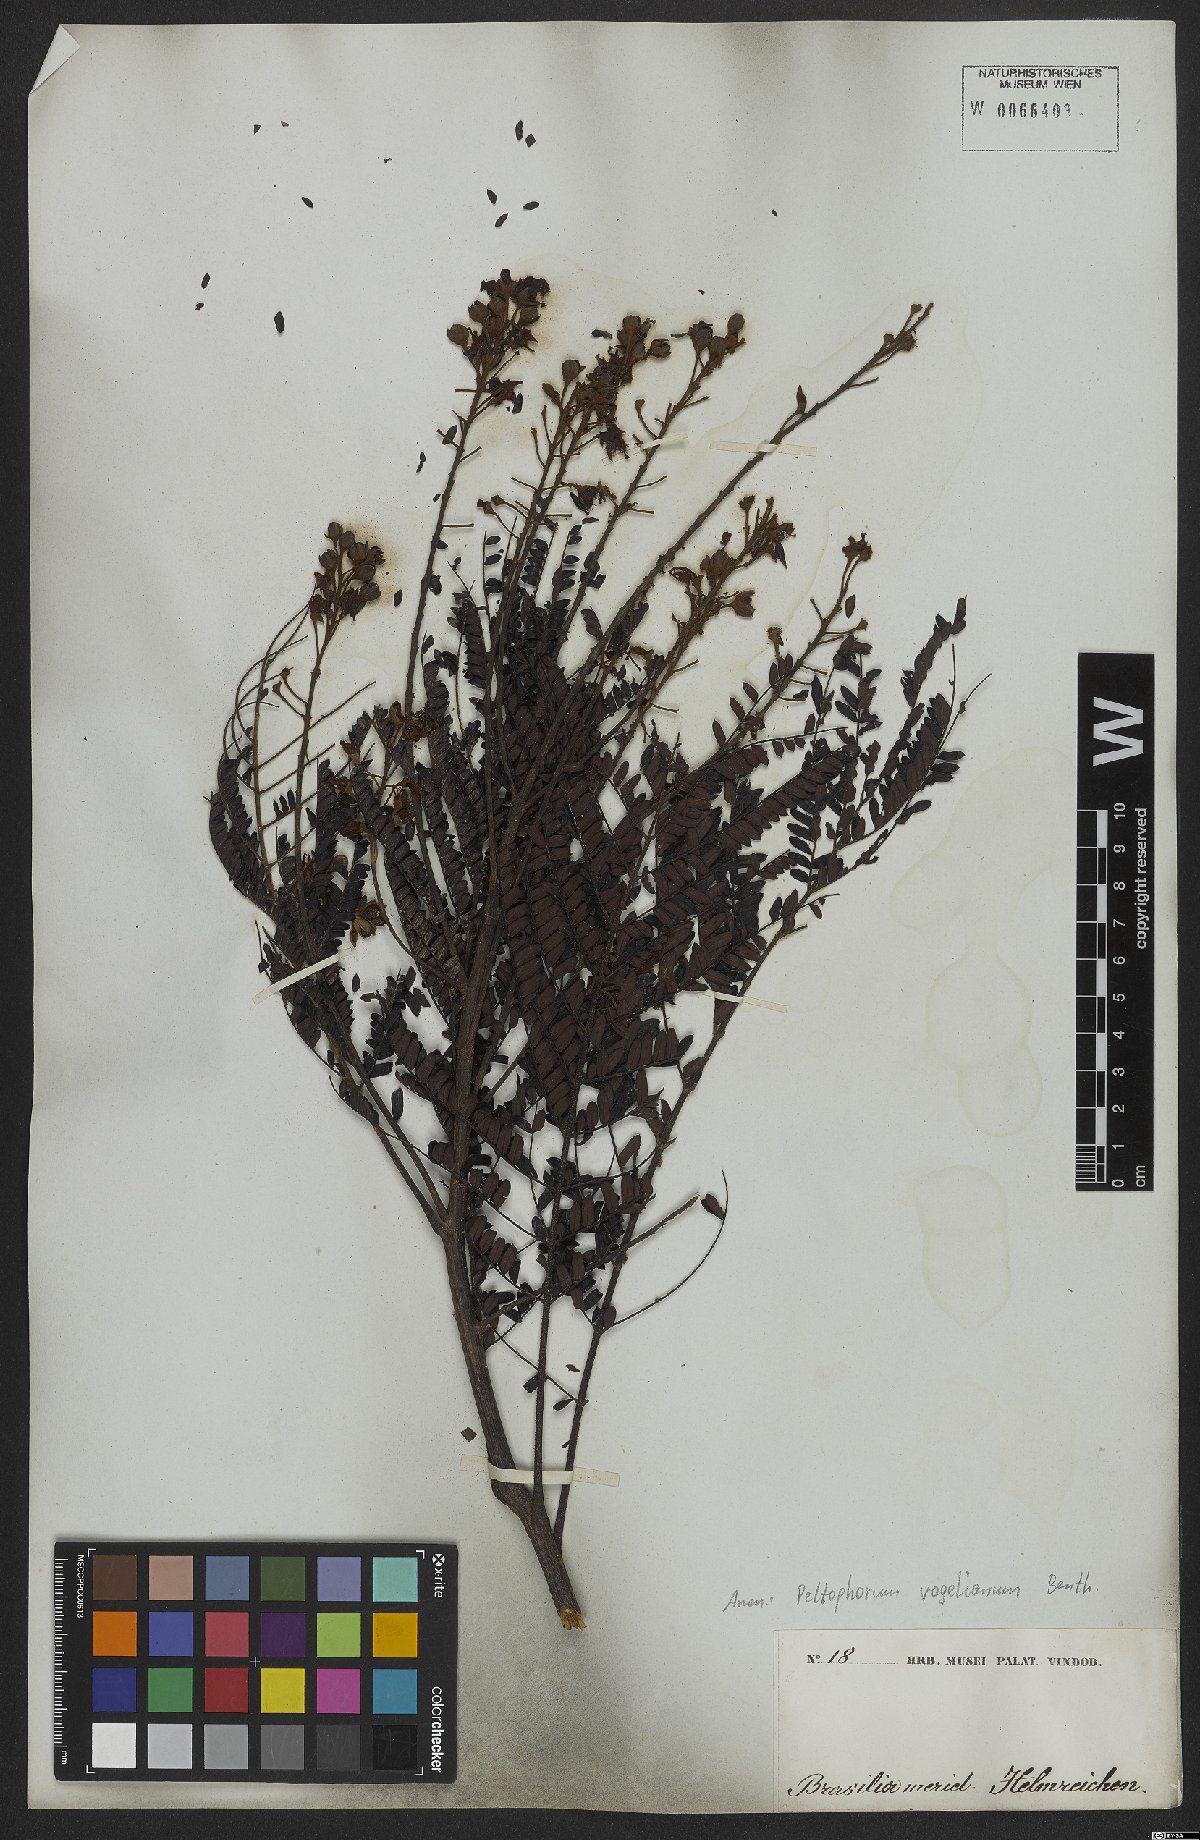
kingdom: Plantae
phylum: Tracheophyta
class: Magnoliopsida
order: Fabales
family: Fabaceae
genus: Peltophorum
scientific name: Peltophorum dubium
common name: Horsebush
